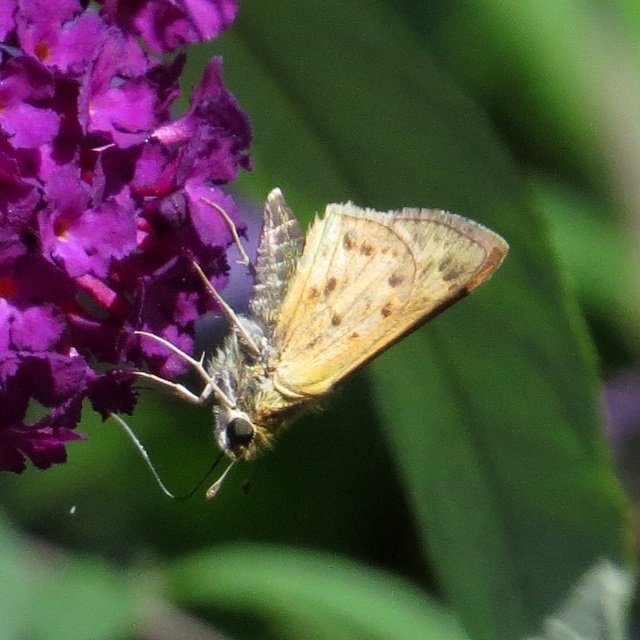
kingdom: Animalia
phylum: Arthropoda
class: Insecta
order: Lepidoptera
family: Hesperiidae
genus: Hylephila
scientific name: Hylephila phyleus
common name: Fiery Skipper
